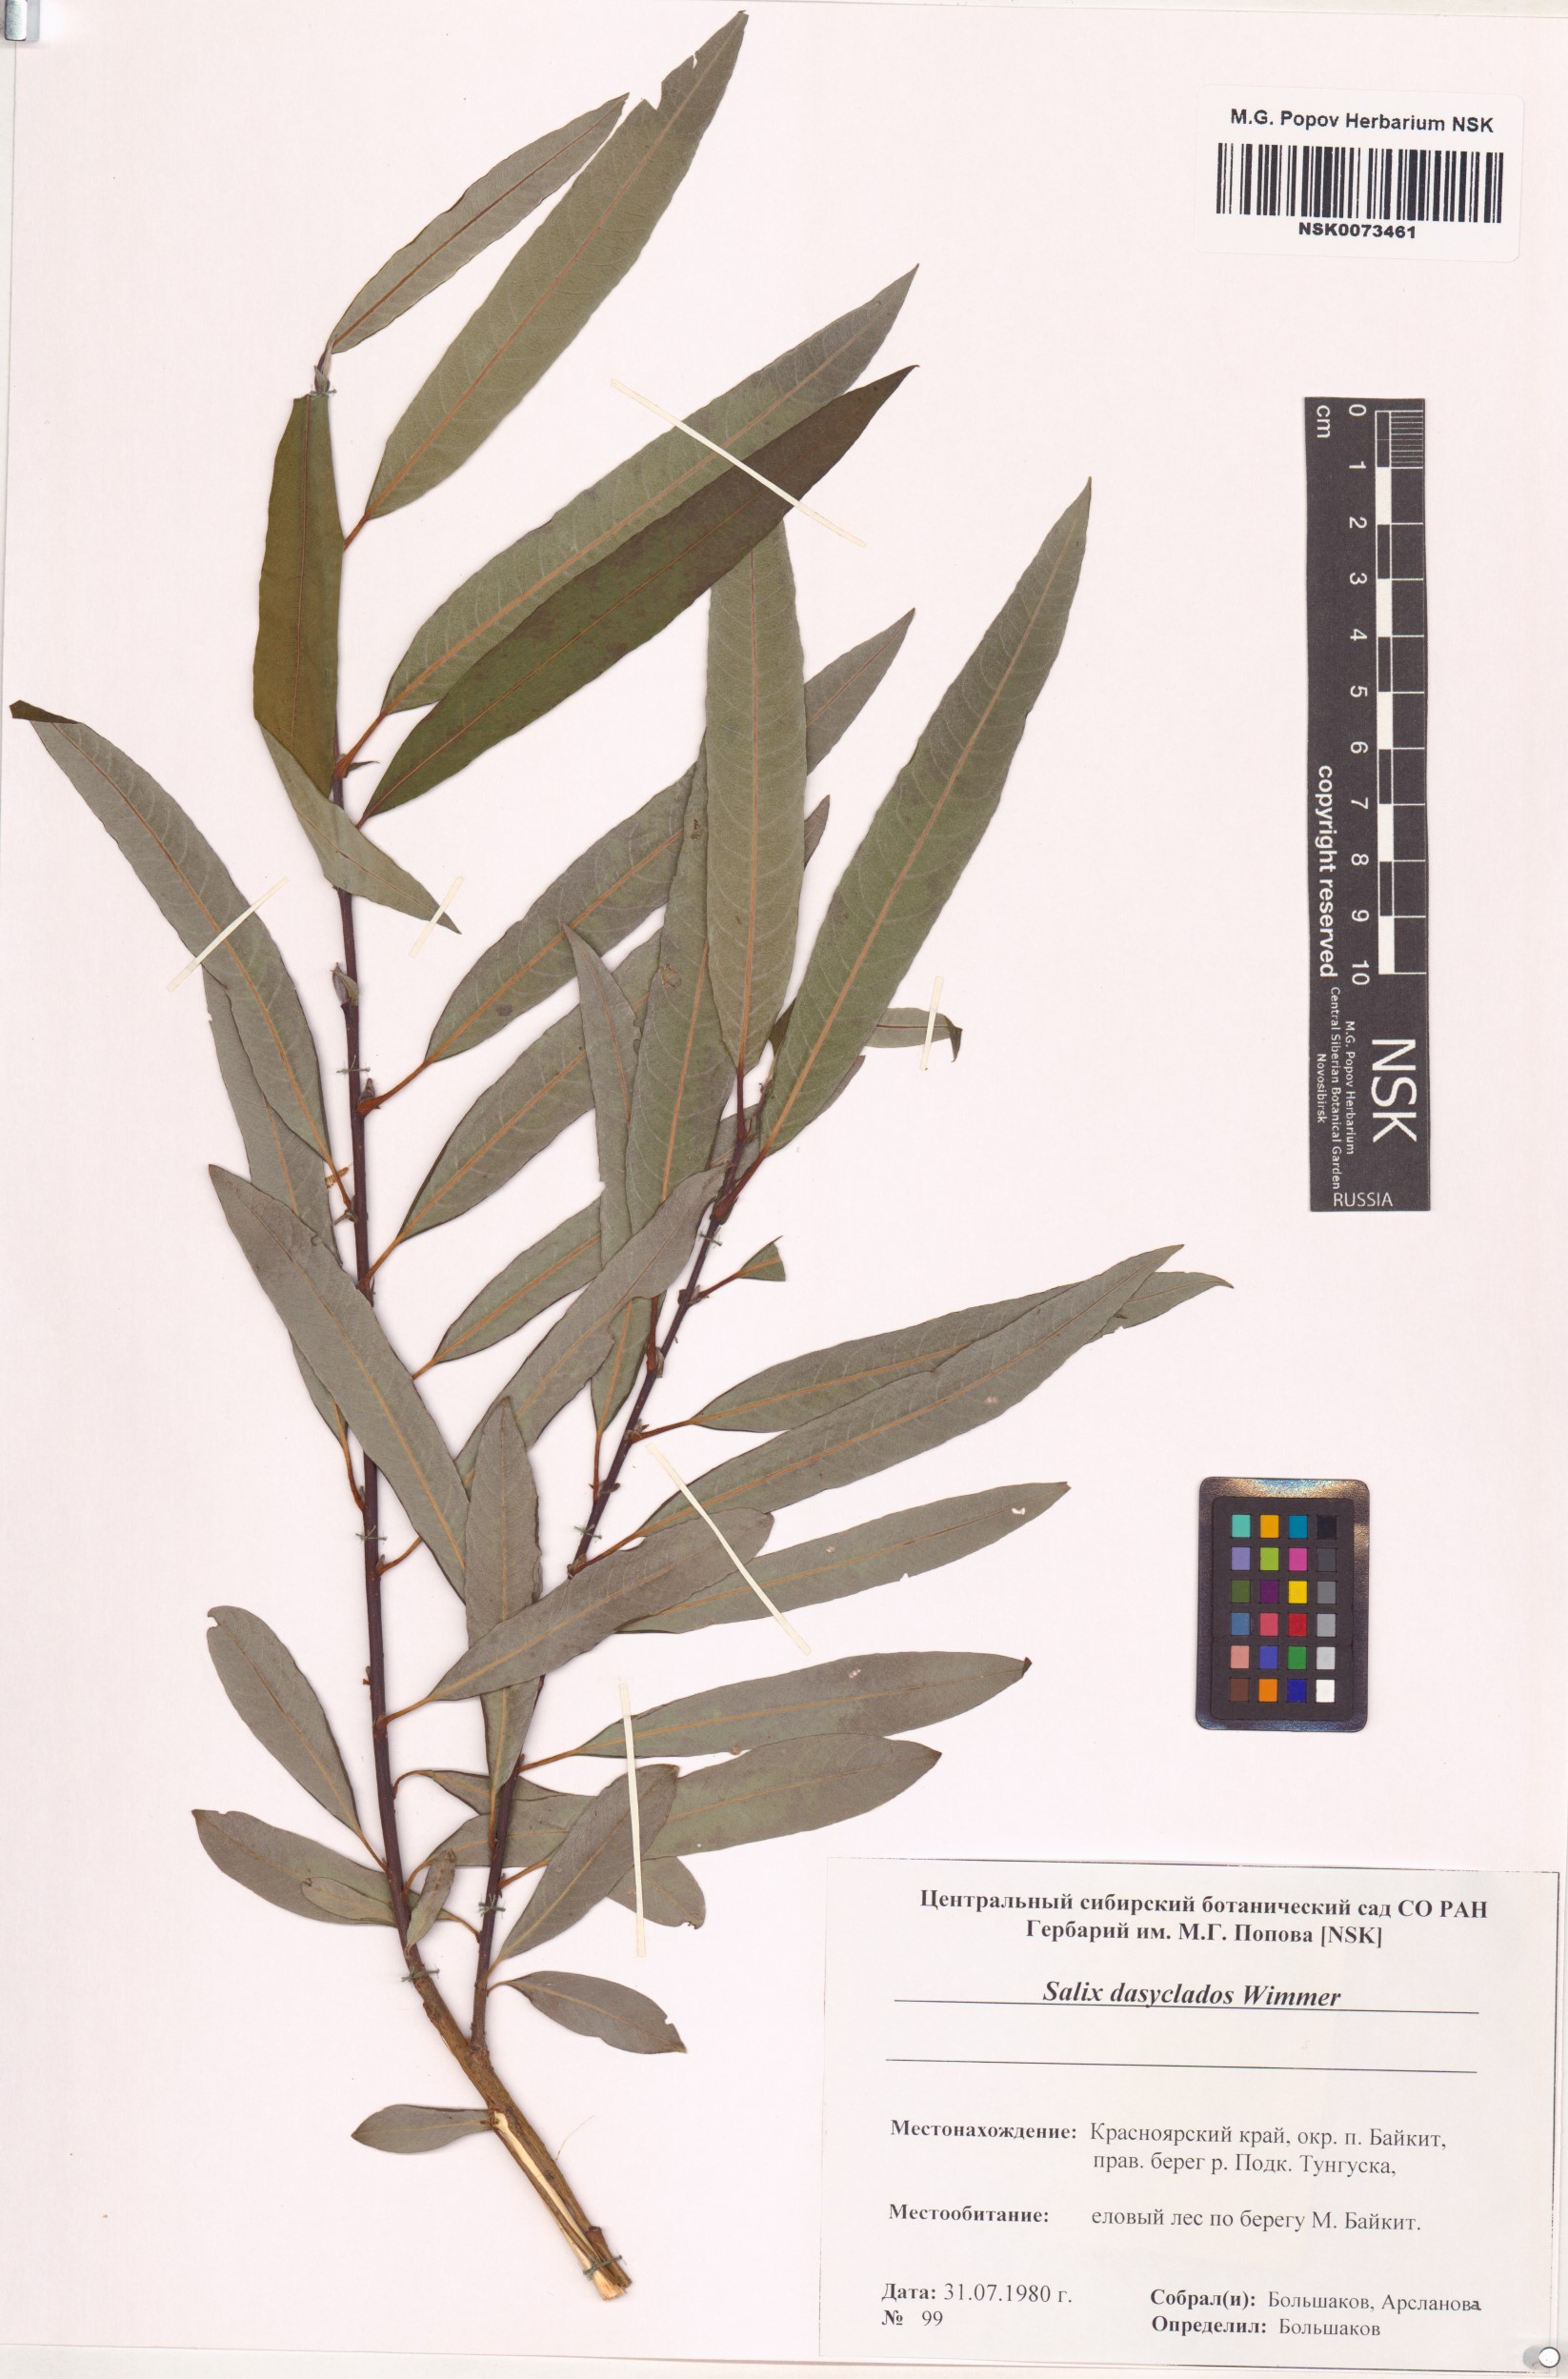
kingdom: Plantae
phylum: Tracheophyta
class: Magnoliopsida
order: Malpighiales
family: Salicaceae
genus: Salix
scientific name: Salix gmelinii
